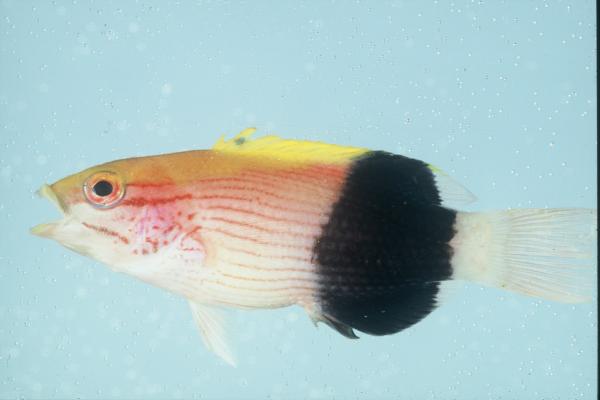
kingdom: Animalia
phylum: Chordata
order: Perciformes
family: Labridae
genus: Bodianus
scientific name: Bodianus bilunulatus
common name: Tarry hogfish
